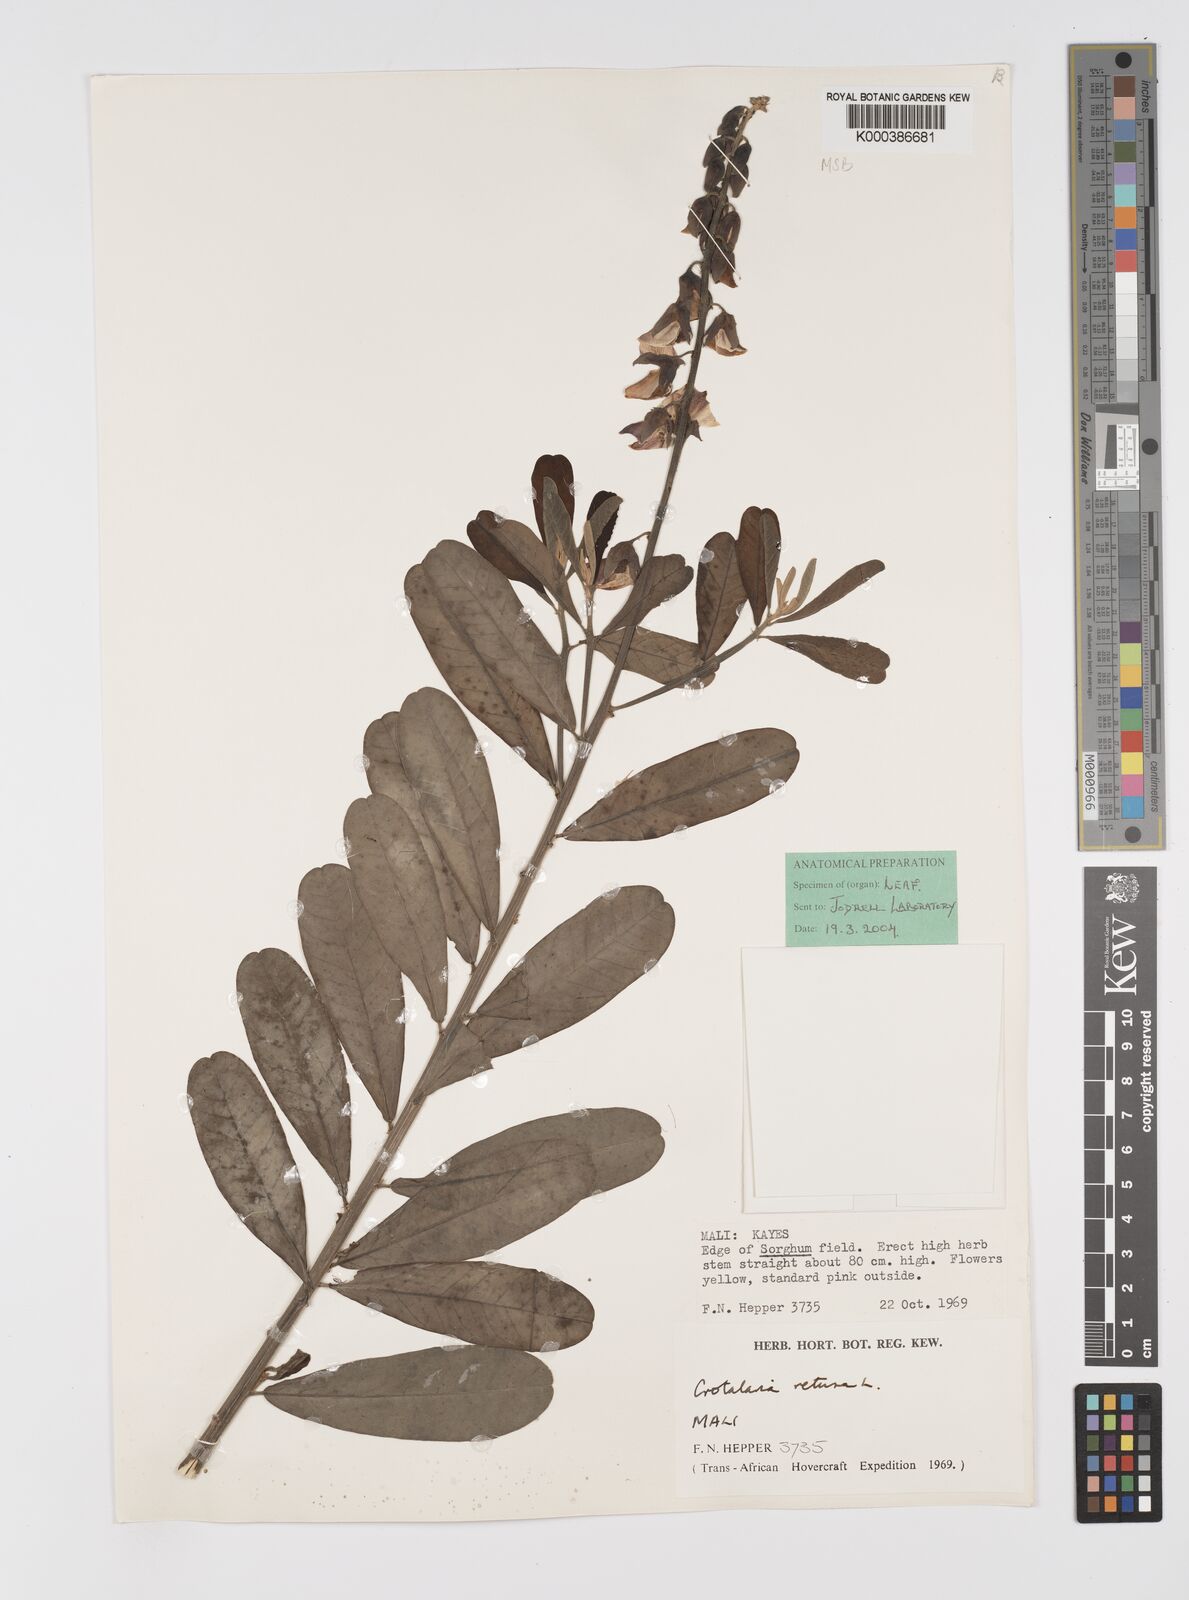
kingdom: Plantae
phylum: Tracheophyta
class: Magnoliopsida
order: Fabales
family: Fabaceae
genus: Crotalaria
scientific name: Crotalaria retusa
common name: Rattleweed
